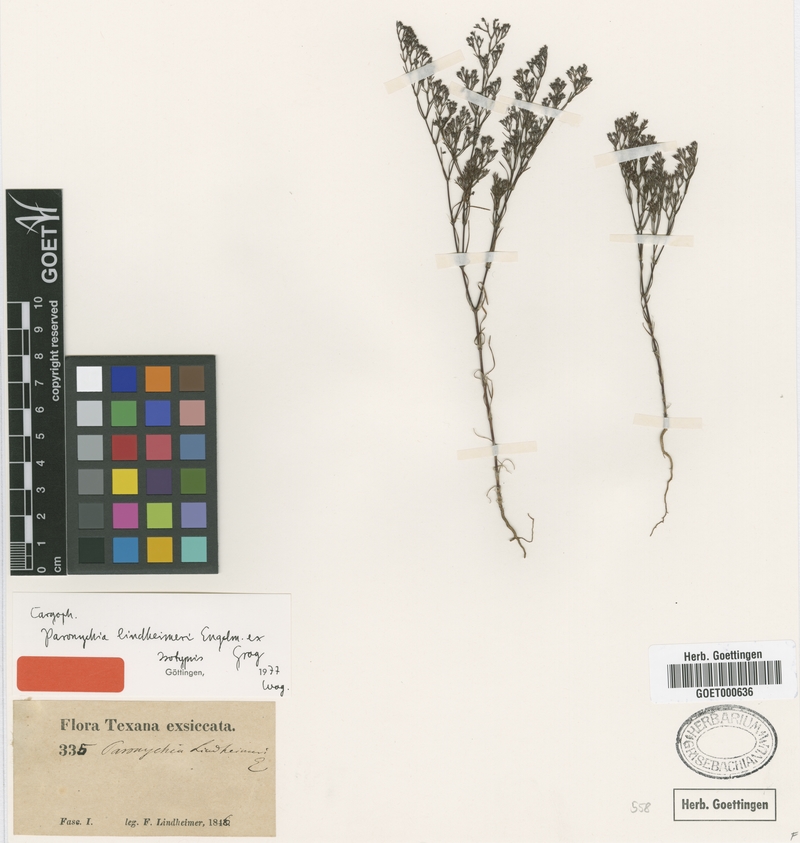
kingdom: Plantae
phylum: Tracheophyta
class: Magnoliopsida
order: Caryophyllales
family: Caryophyllaceae
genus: Paronychia
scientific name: Paronychia lindheimeri
